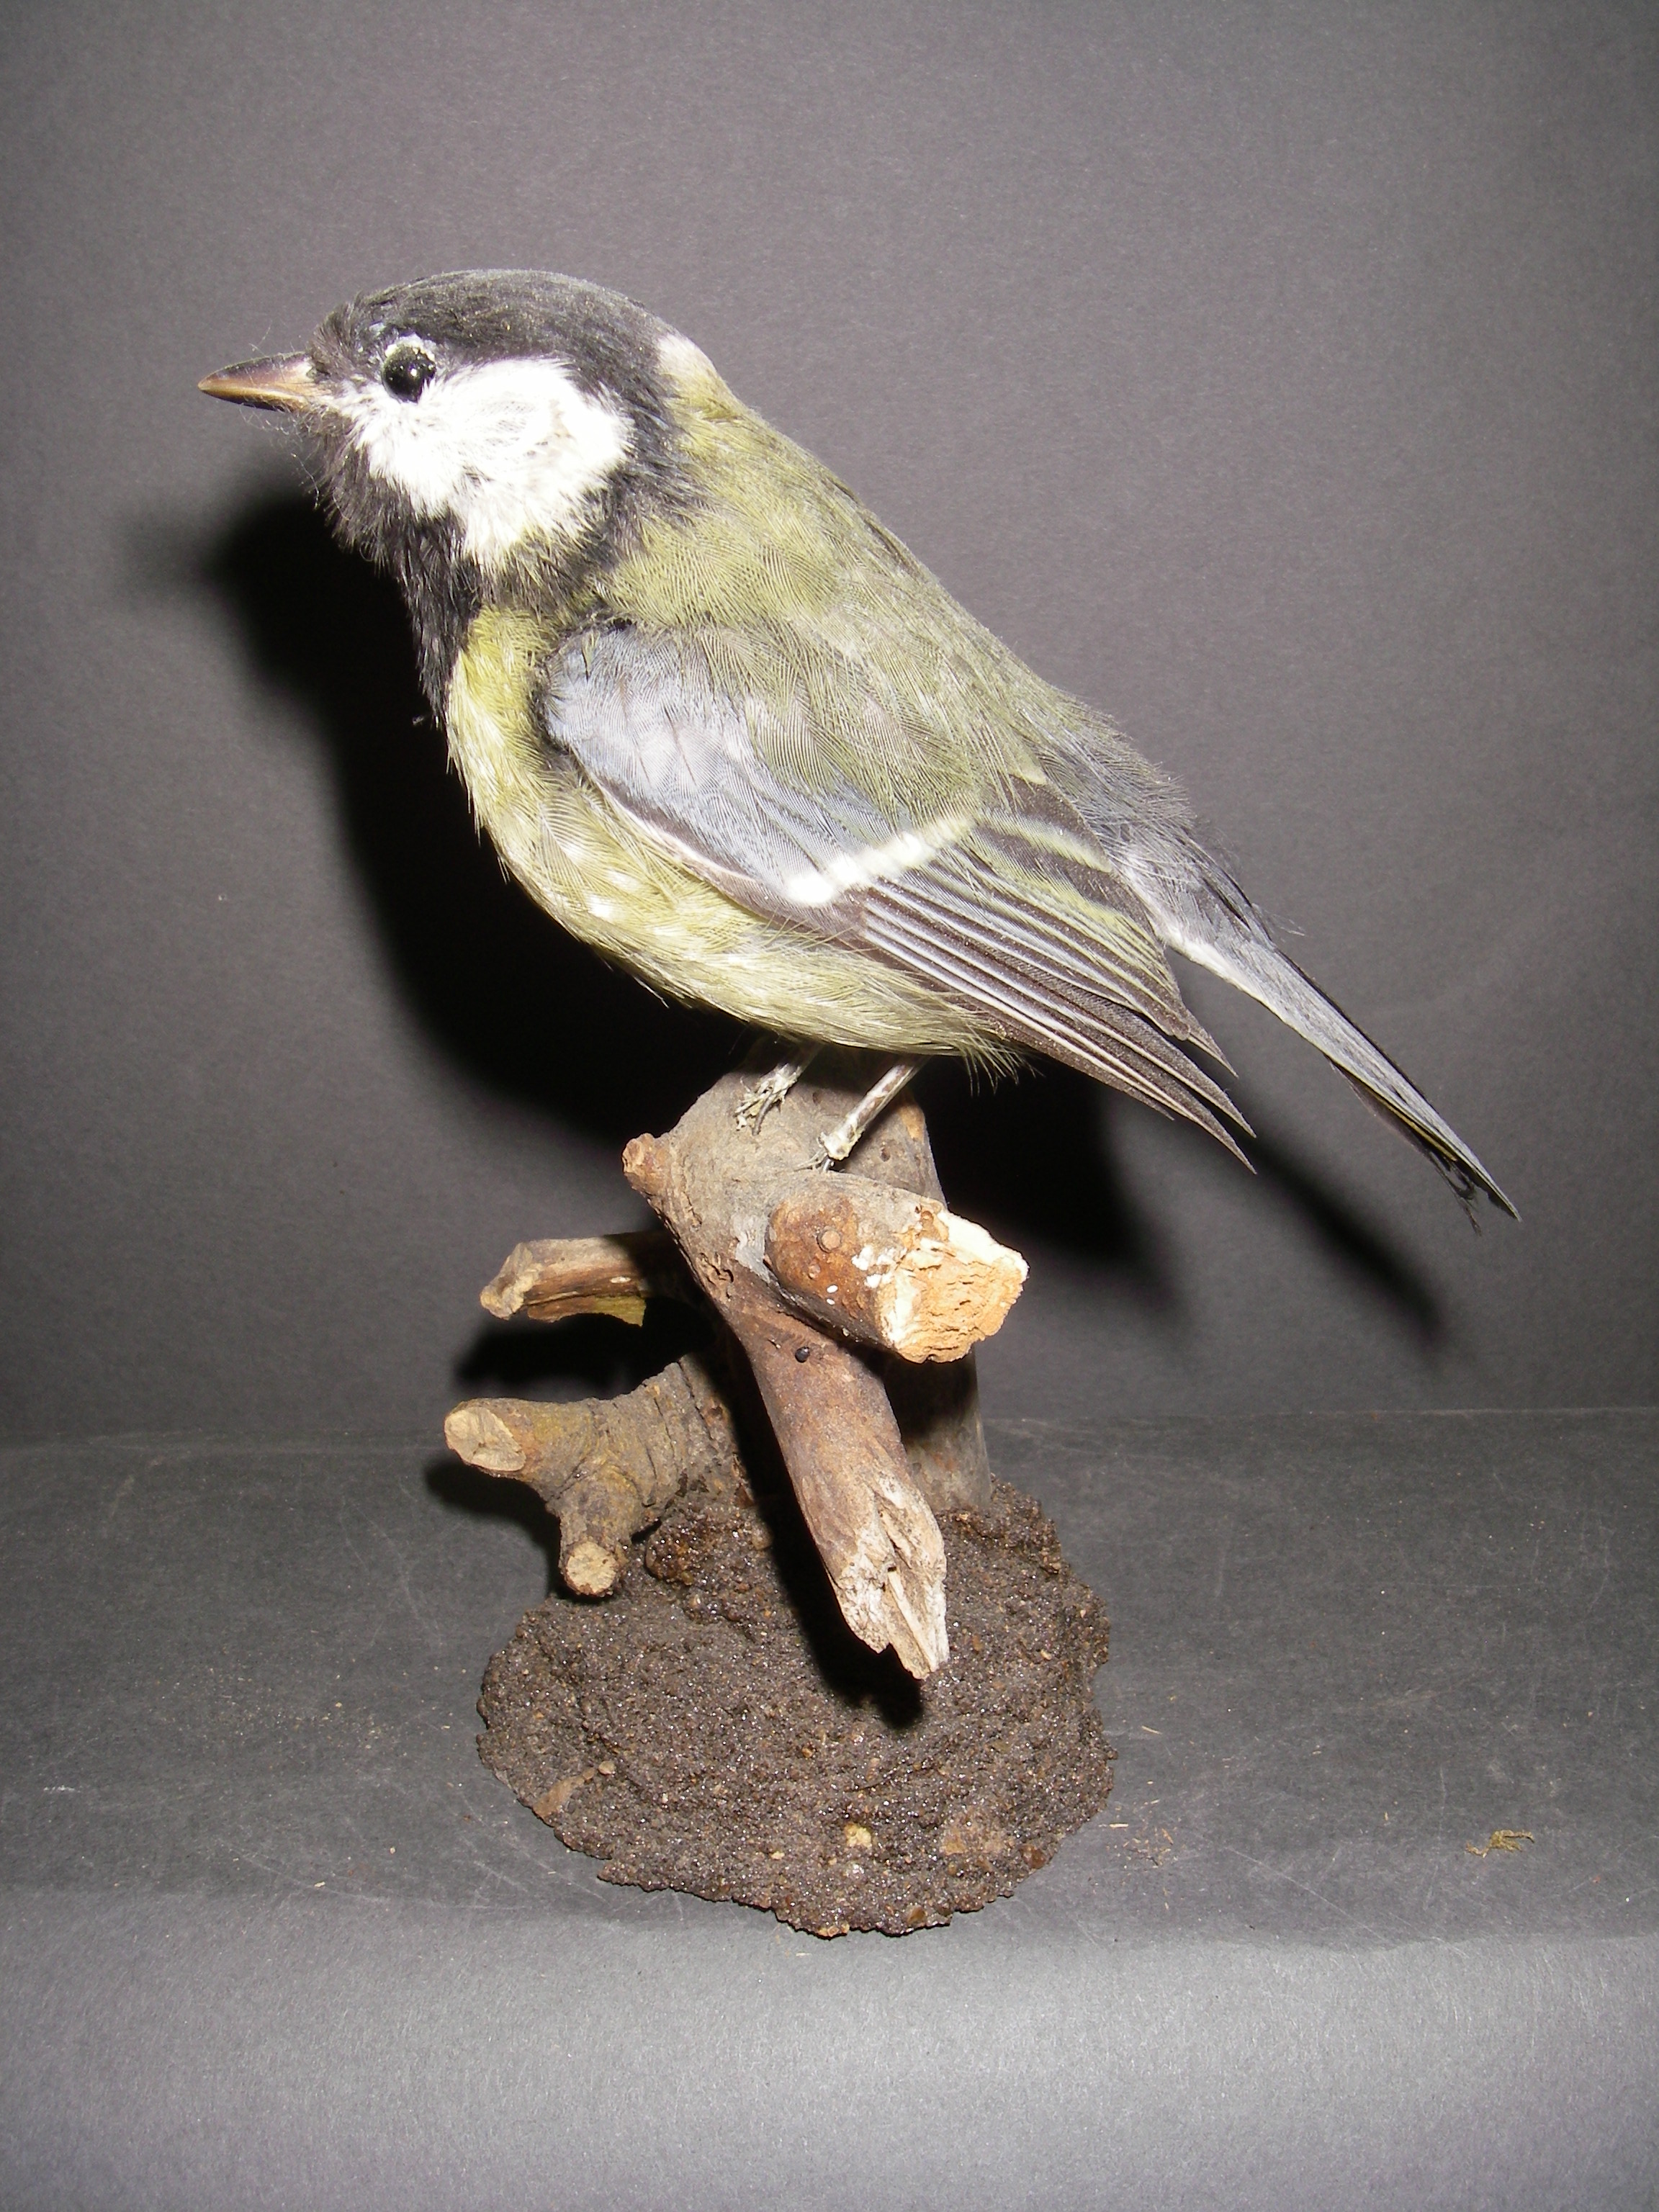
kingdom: Animalia
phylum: Chordata
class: Aves
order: Passeriformes
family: Paridae
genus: Parus
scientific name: Parus major
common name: Great tit
